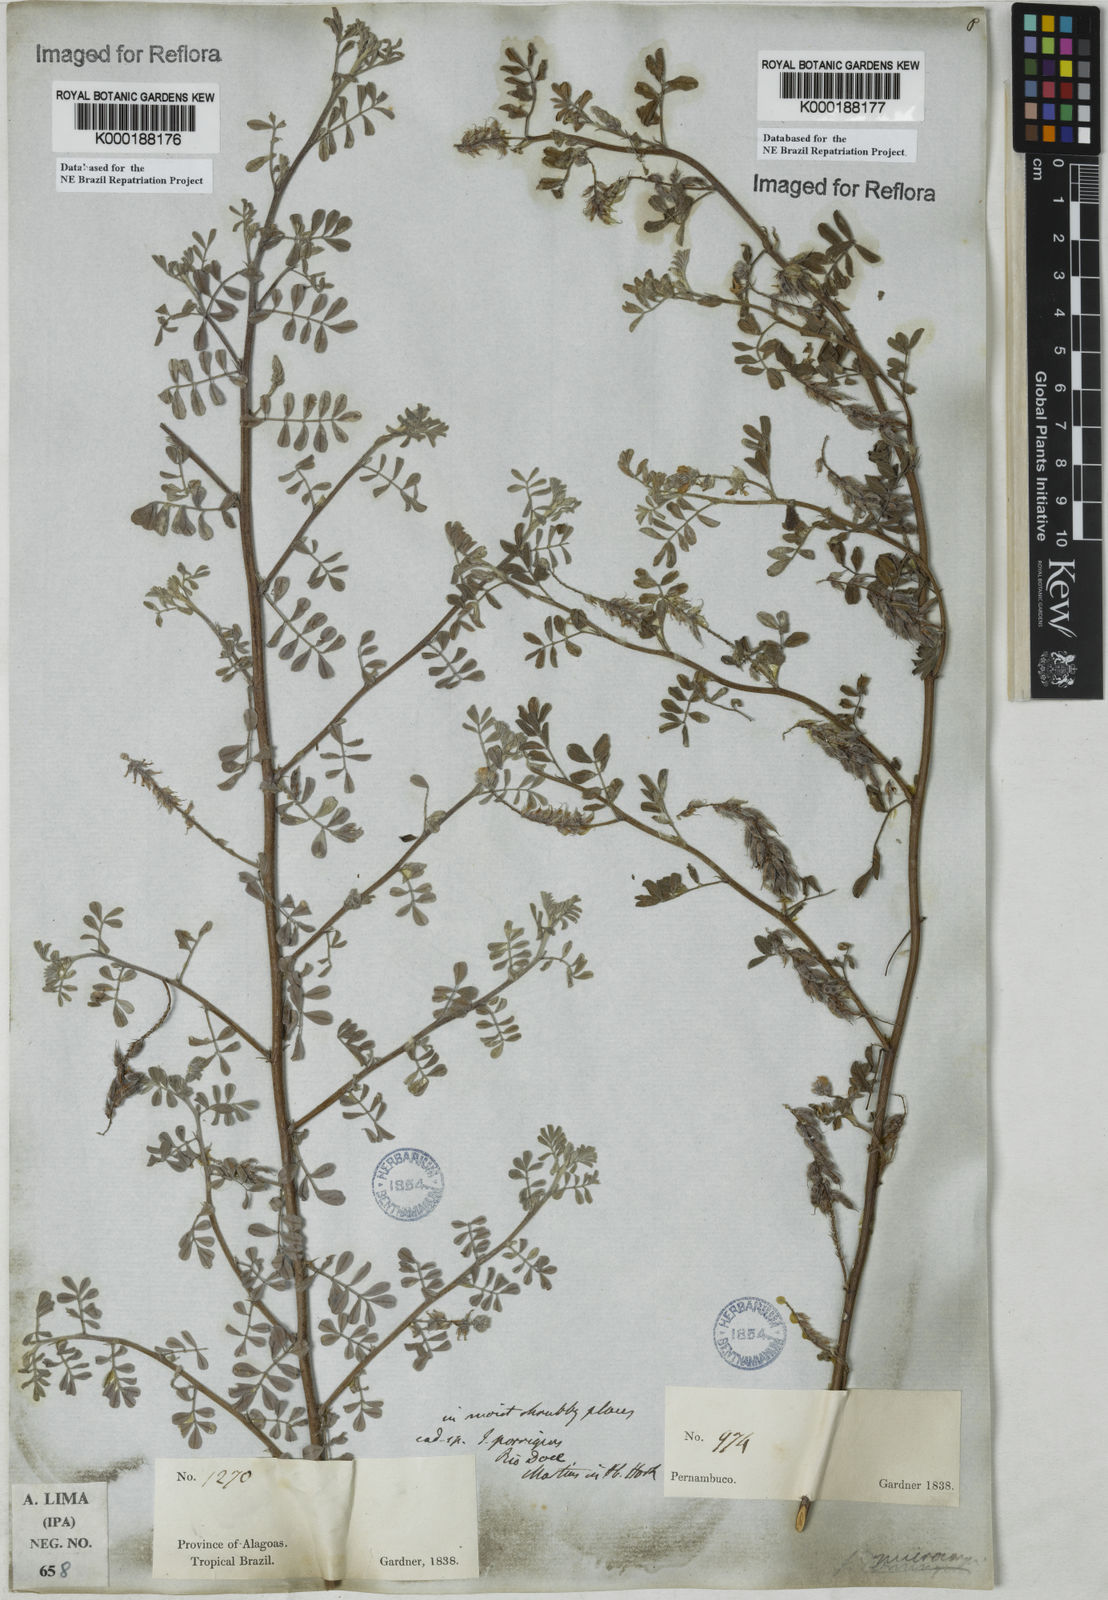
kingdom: Plantae
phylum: Tracheophyta
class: Magnoliopsida
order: Fabales
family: Fabaceae
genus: Indigofera
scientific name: Indigofera microcarpa
